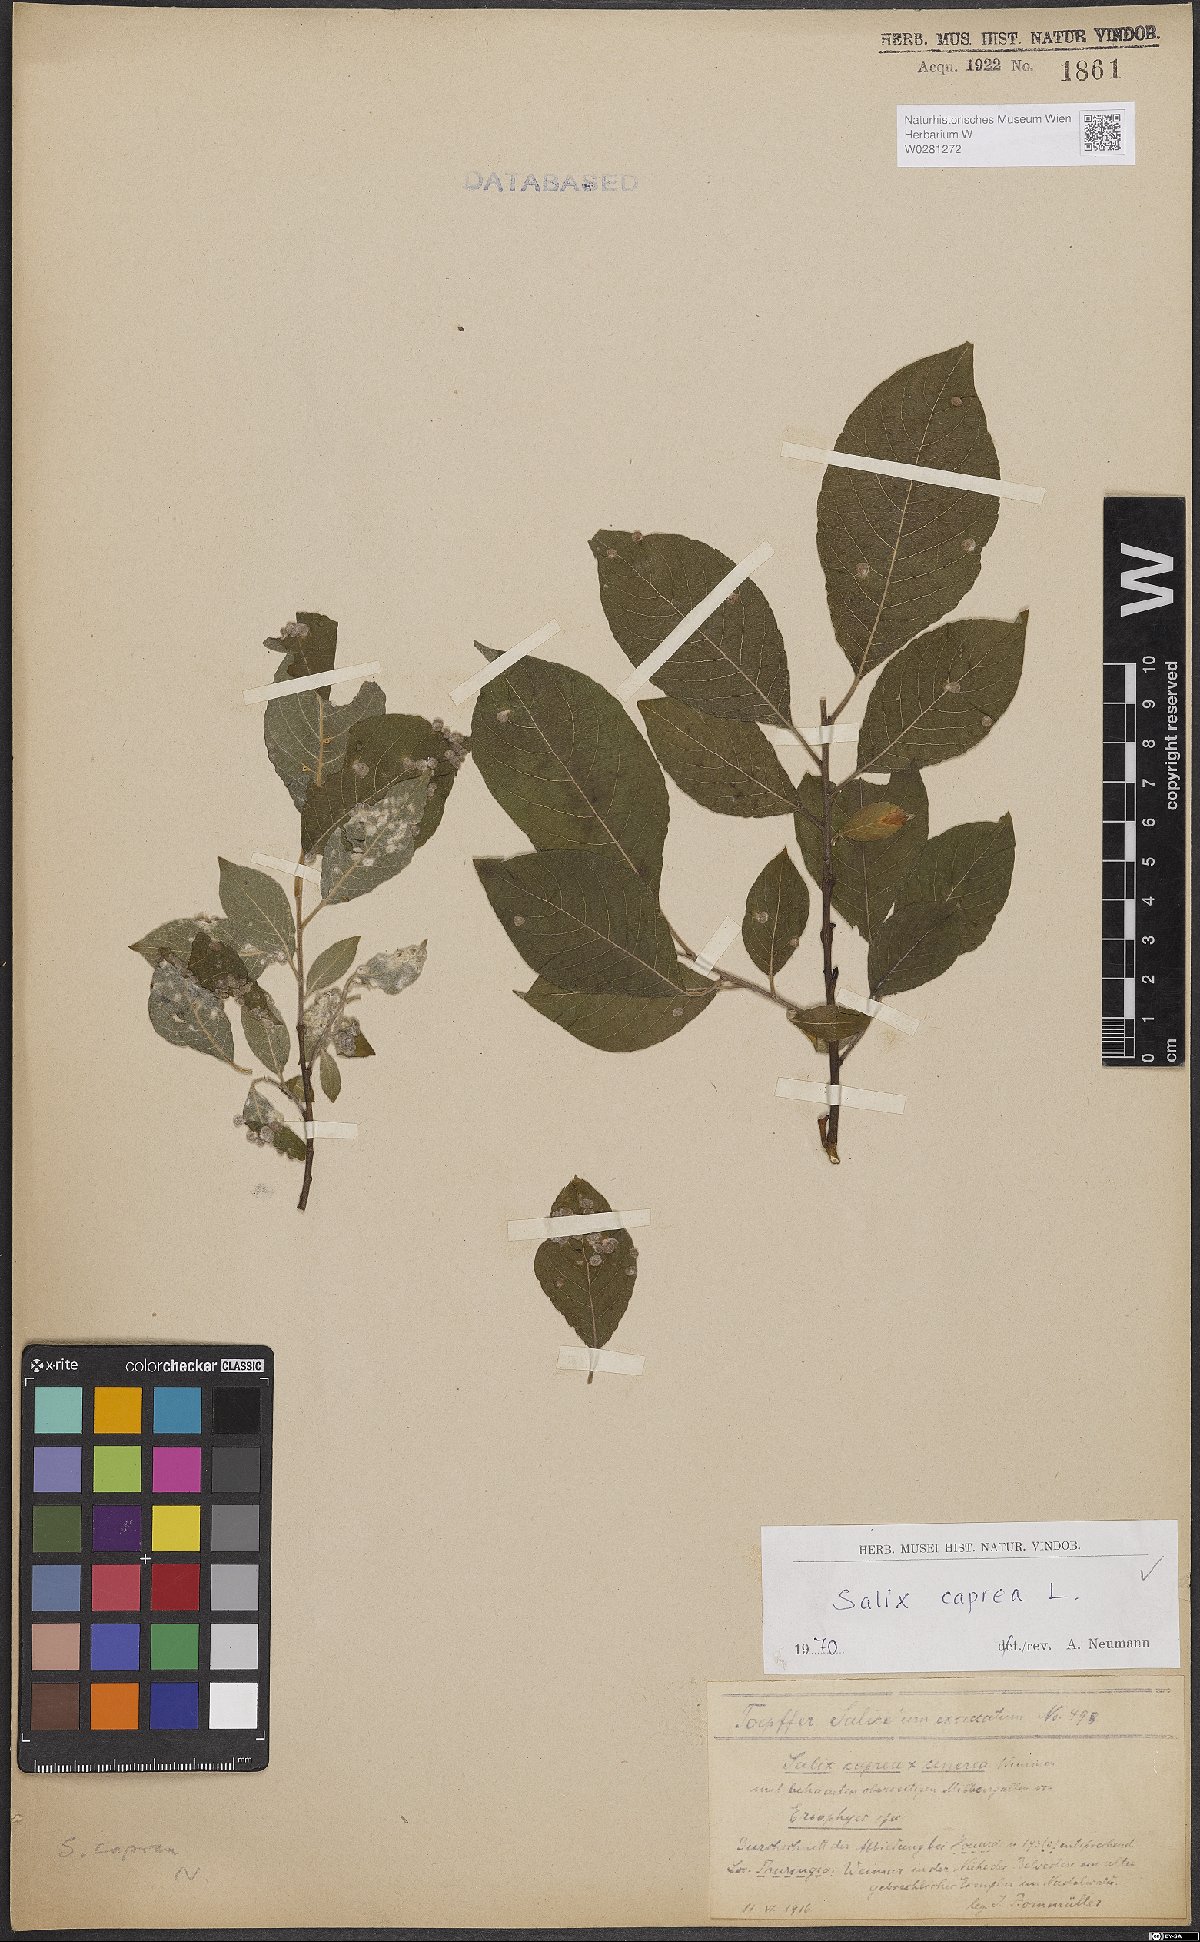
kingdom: Plantae
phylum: Tracheophyta
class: Magnoliopsida
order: Malpighiales
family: Salicaceae
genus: Salix
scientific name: Salix caprea
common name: Goat willow
